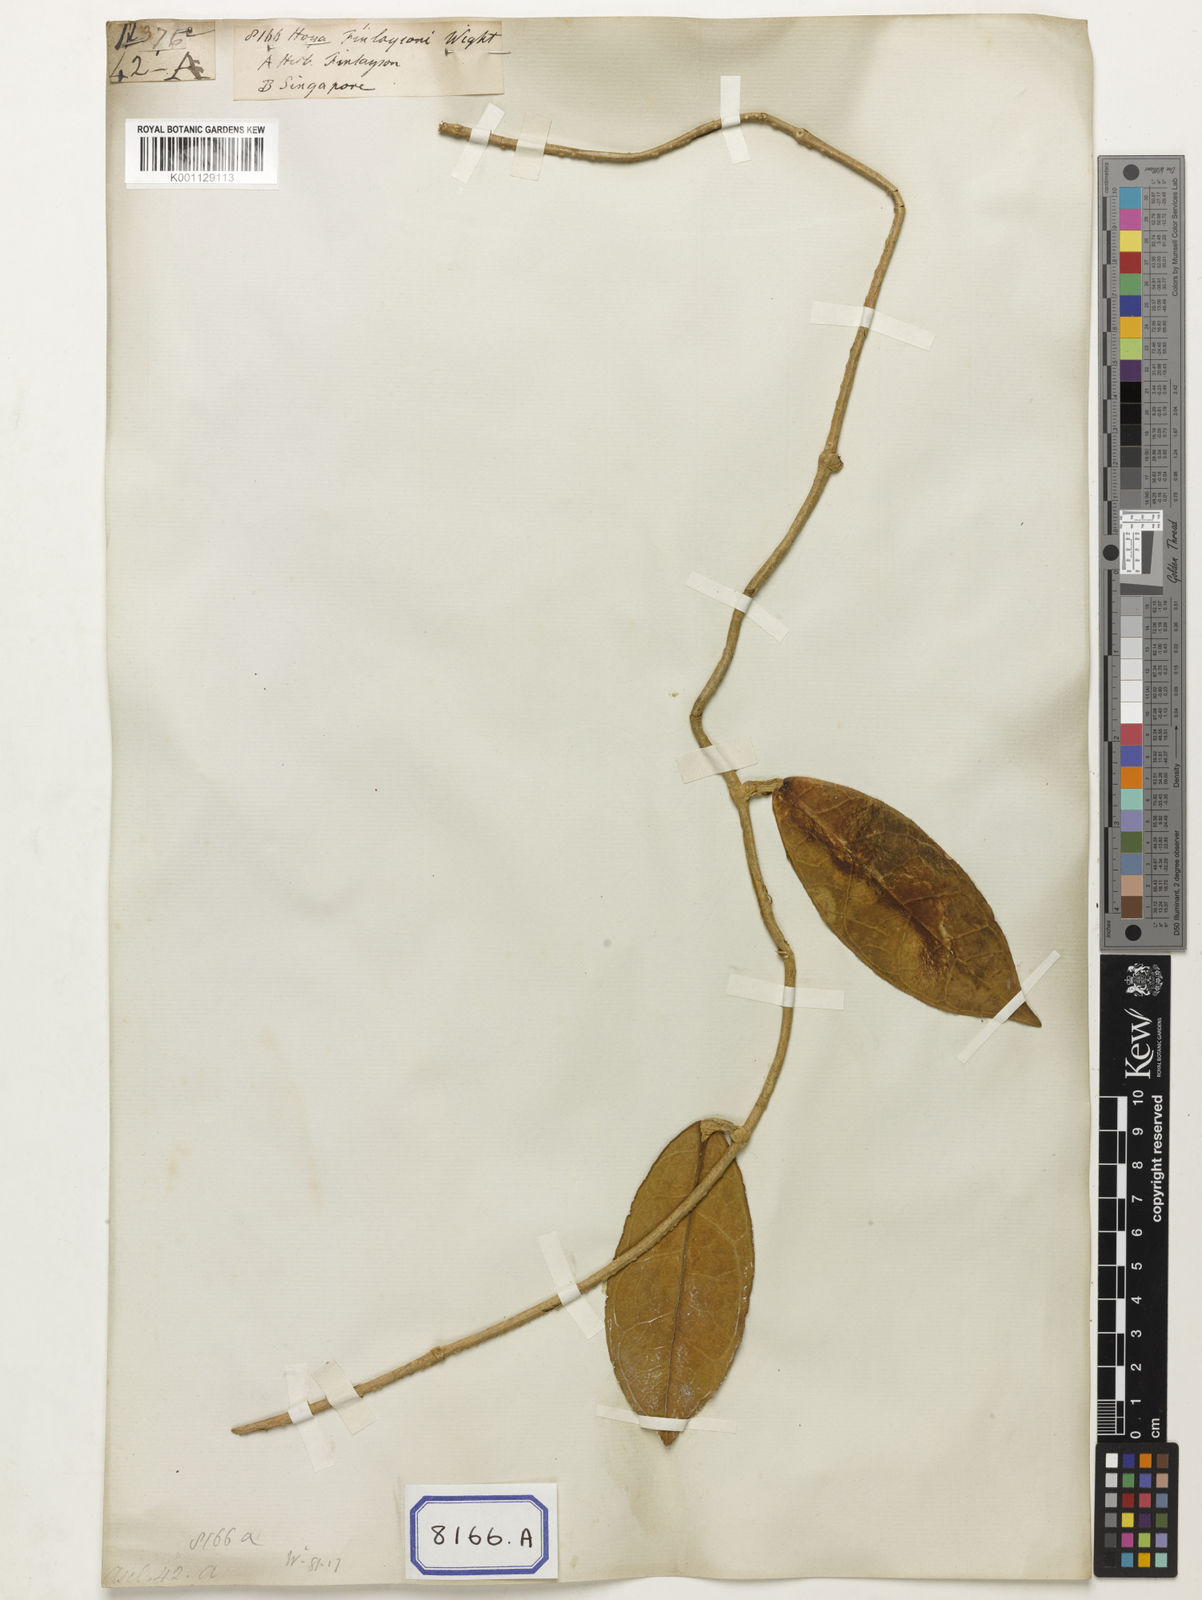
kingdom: Plantae
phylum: Tracheophyta
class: Magnoliopsida
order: Gentianales
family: Apocynaceae
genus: Hoya
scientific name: Hoya finlaysonii
